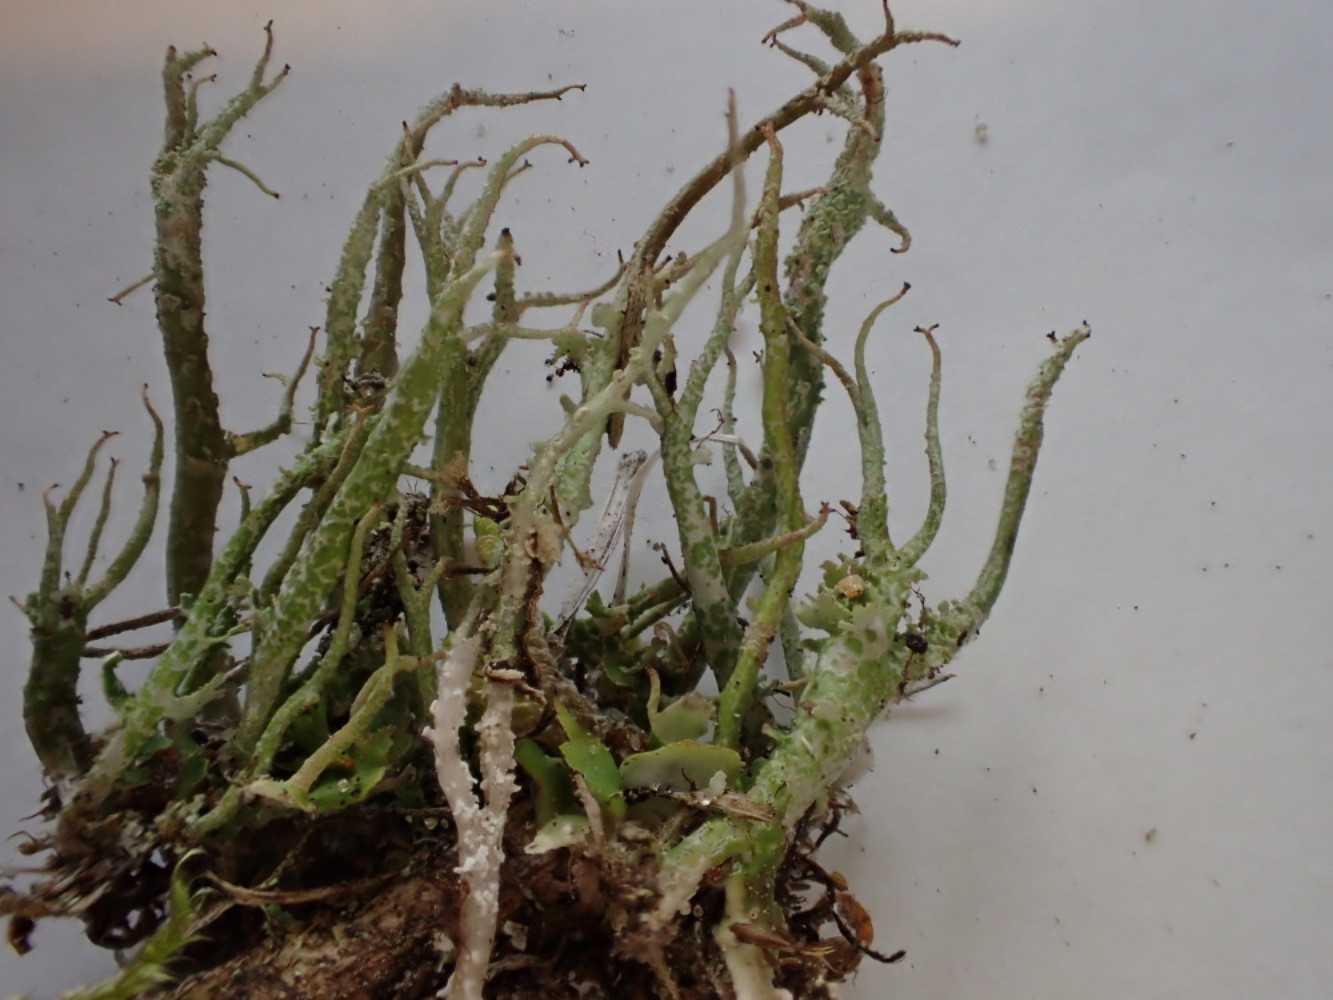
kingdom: Fungi
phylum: Ascomycota
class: Lecanoromycetes
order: Lecanorales
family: Cladoniaceae
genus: Cladonia
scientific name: Cladonia scabriuscula
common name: ru bægerlav
